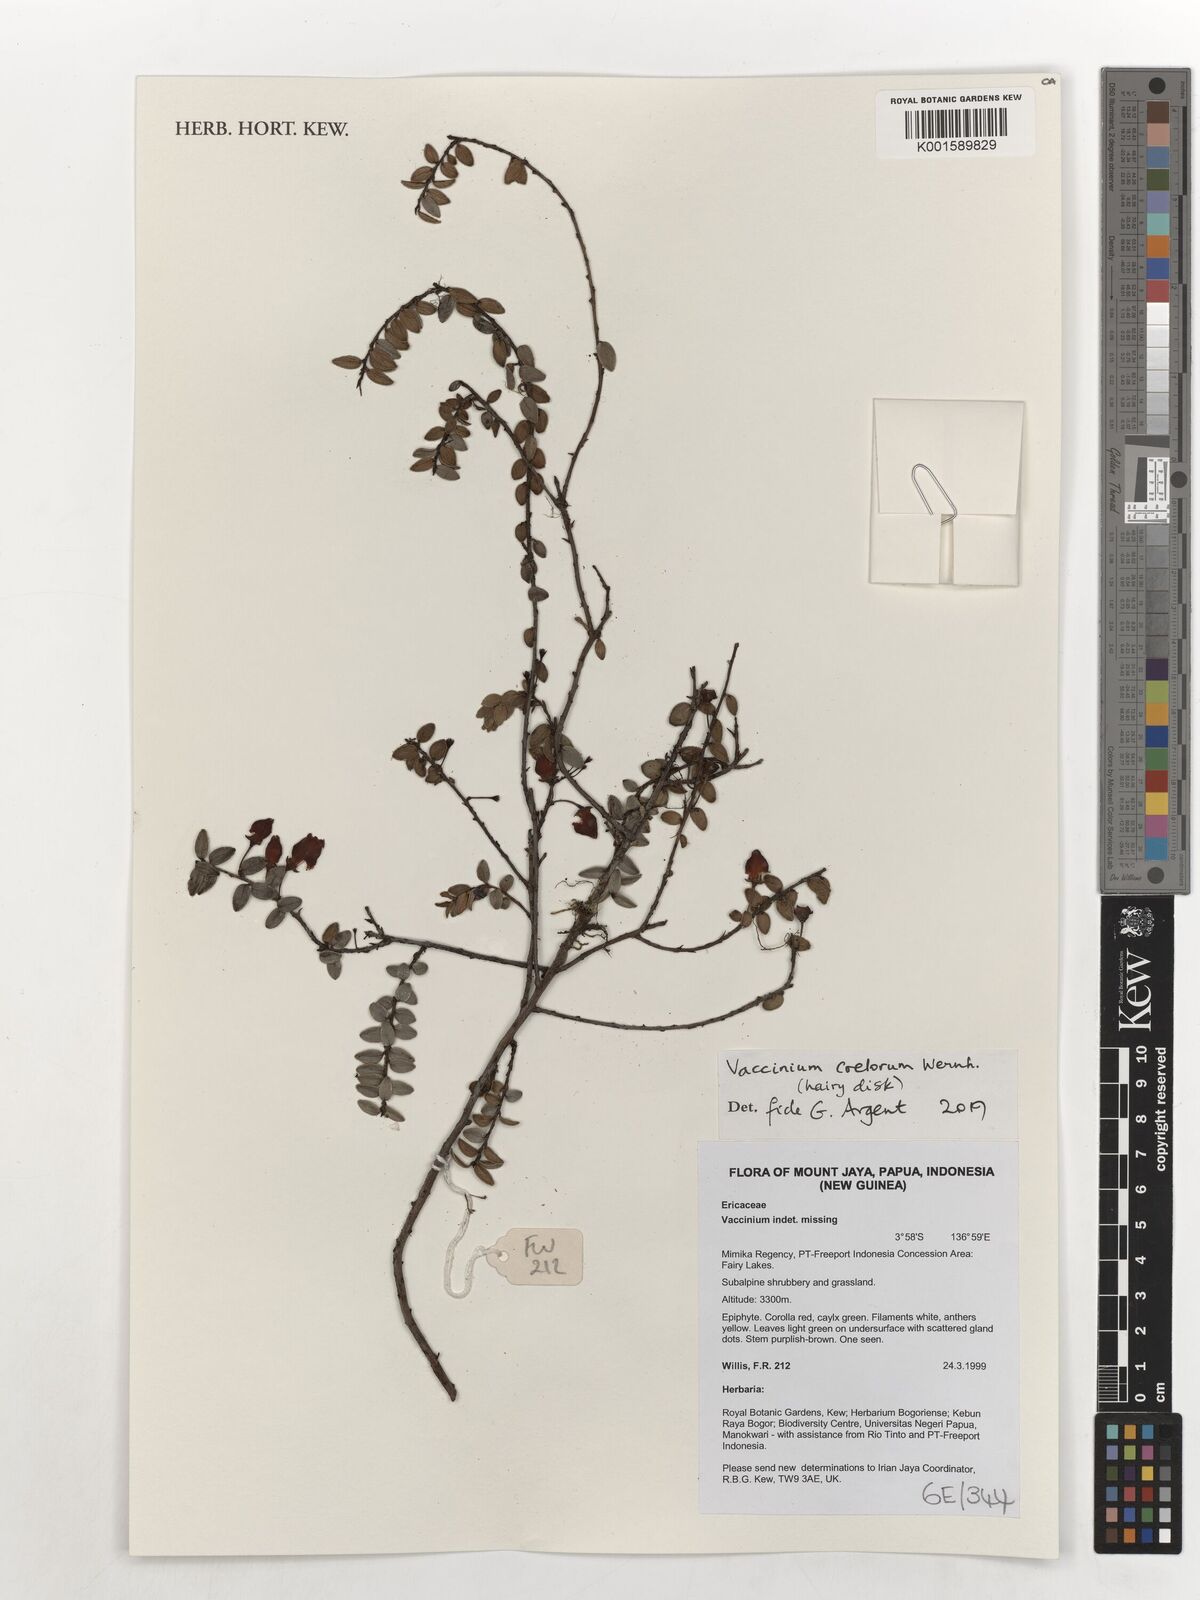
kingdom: Plantae
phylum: Tracheophyta
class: Magnoliopsida
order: Ericales
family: Ericaceae
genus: Vaccinium
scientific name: Vaccinium coelorum
